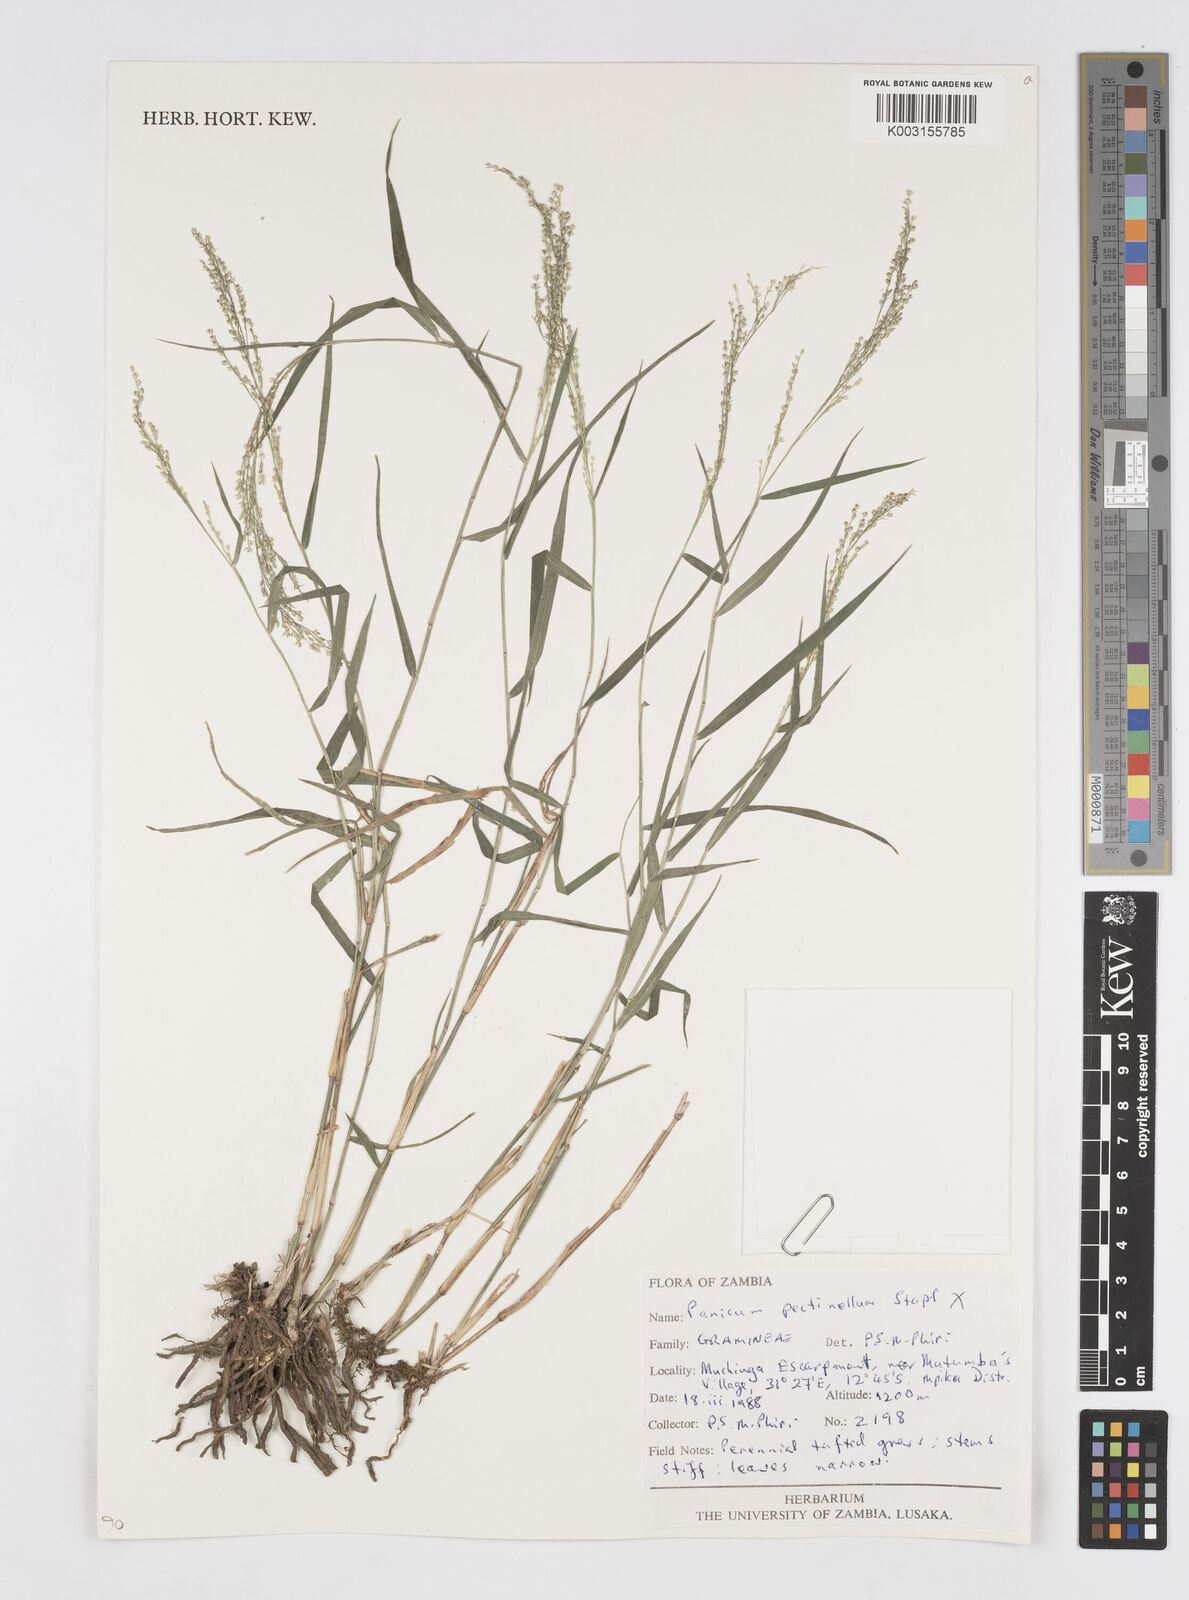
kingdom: Plantae
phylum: Tracheophyta
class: Liliopsida
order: Poales
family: Poaceae
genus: Isachne
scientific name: Isachne angolensis
